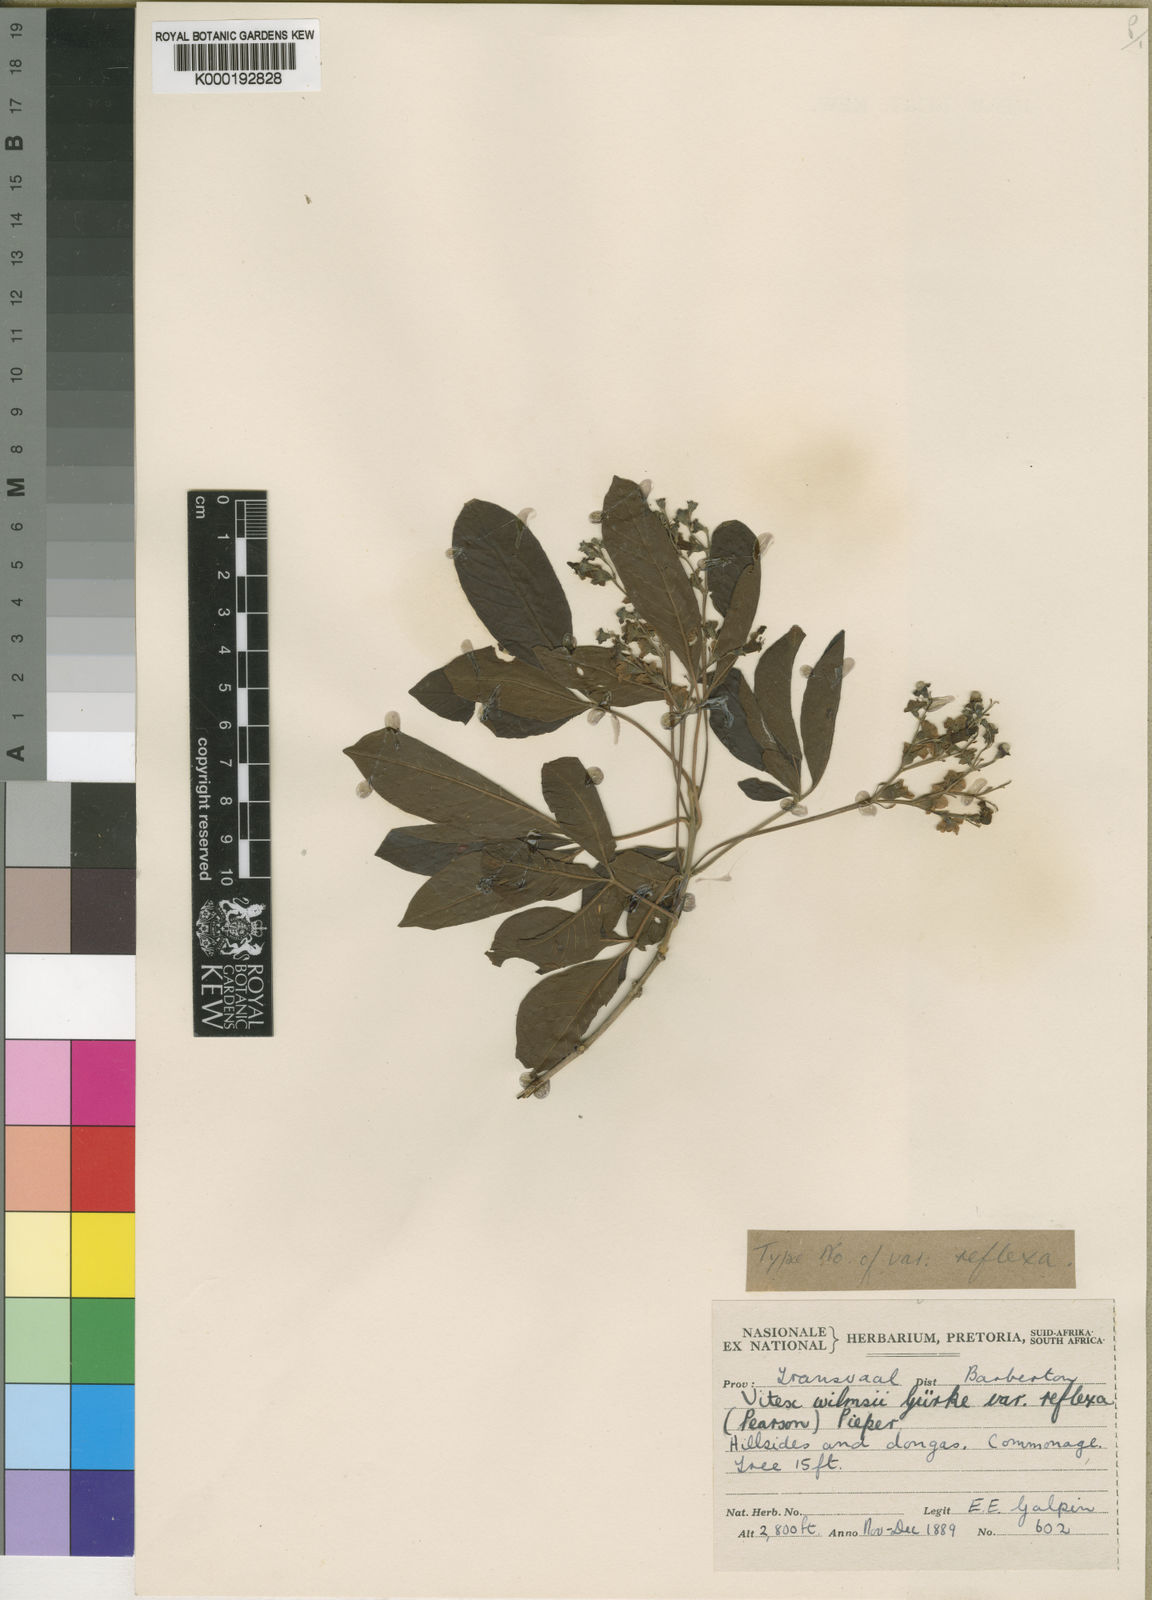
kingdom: Plantae
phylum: Tracheophyta
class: Magnoliopsida
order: Lamiales
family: Lamiaceae
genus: Vitex
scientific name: Vitex
